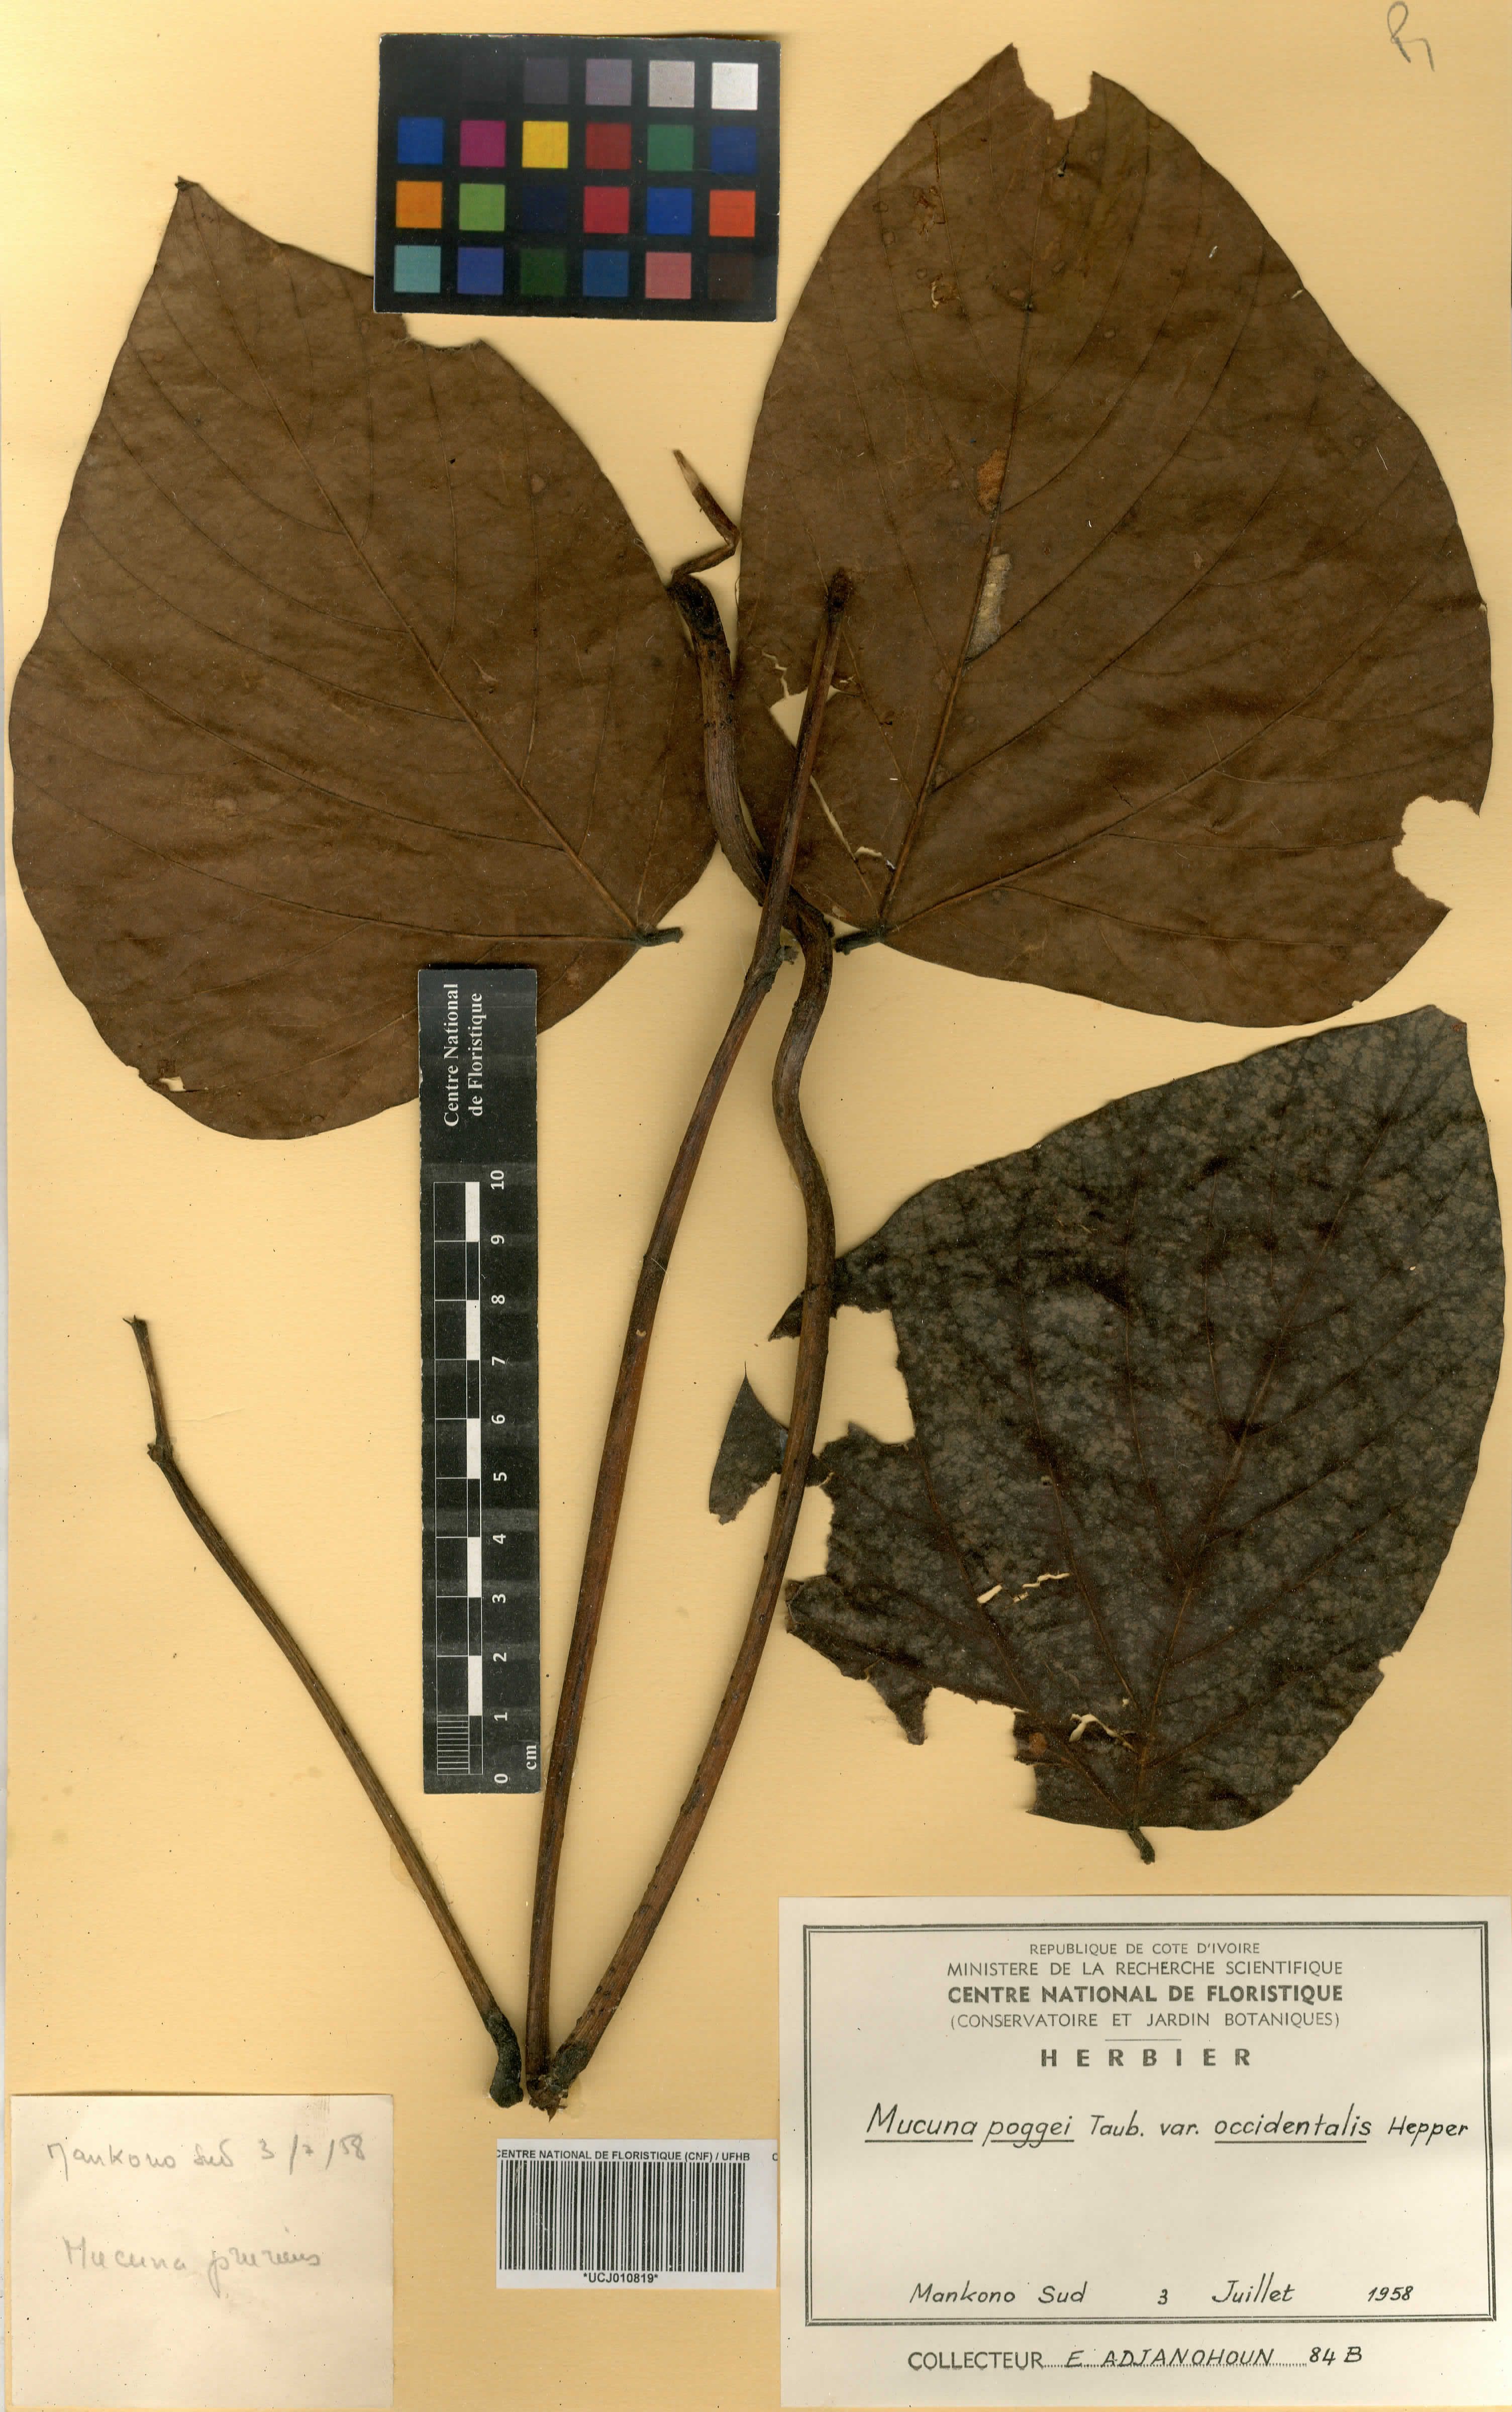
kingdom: Plantae
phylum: Tracheophyta
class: Magnoliopsida
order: Fabales
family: Fabaceae
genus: Mucuna
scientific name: Mucuna occidentalis
